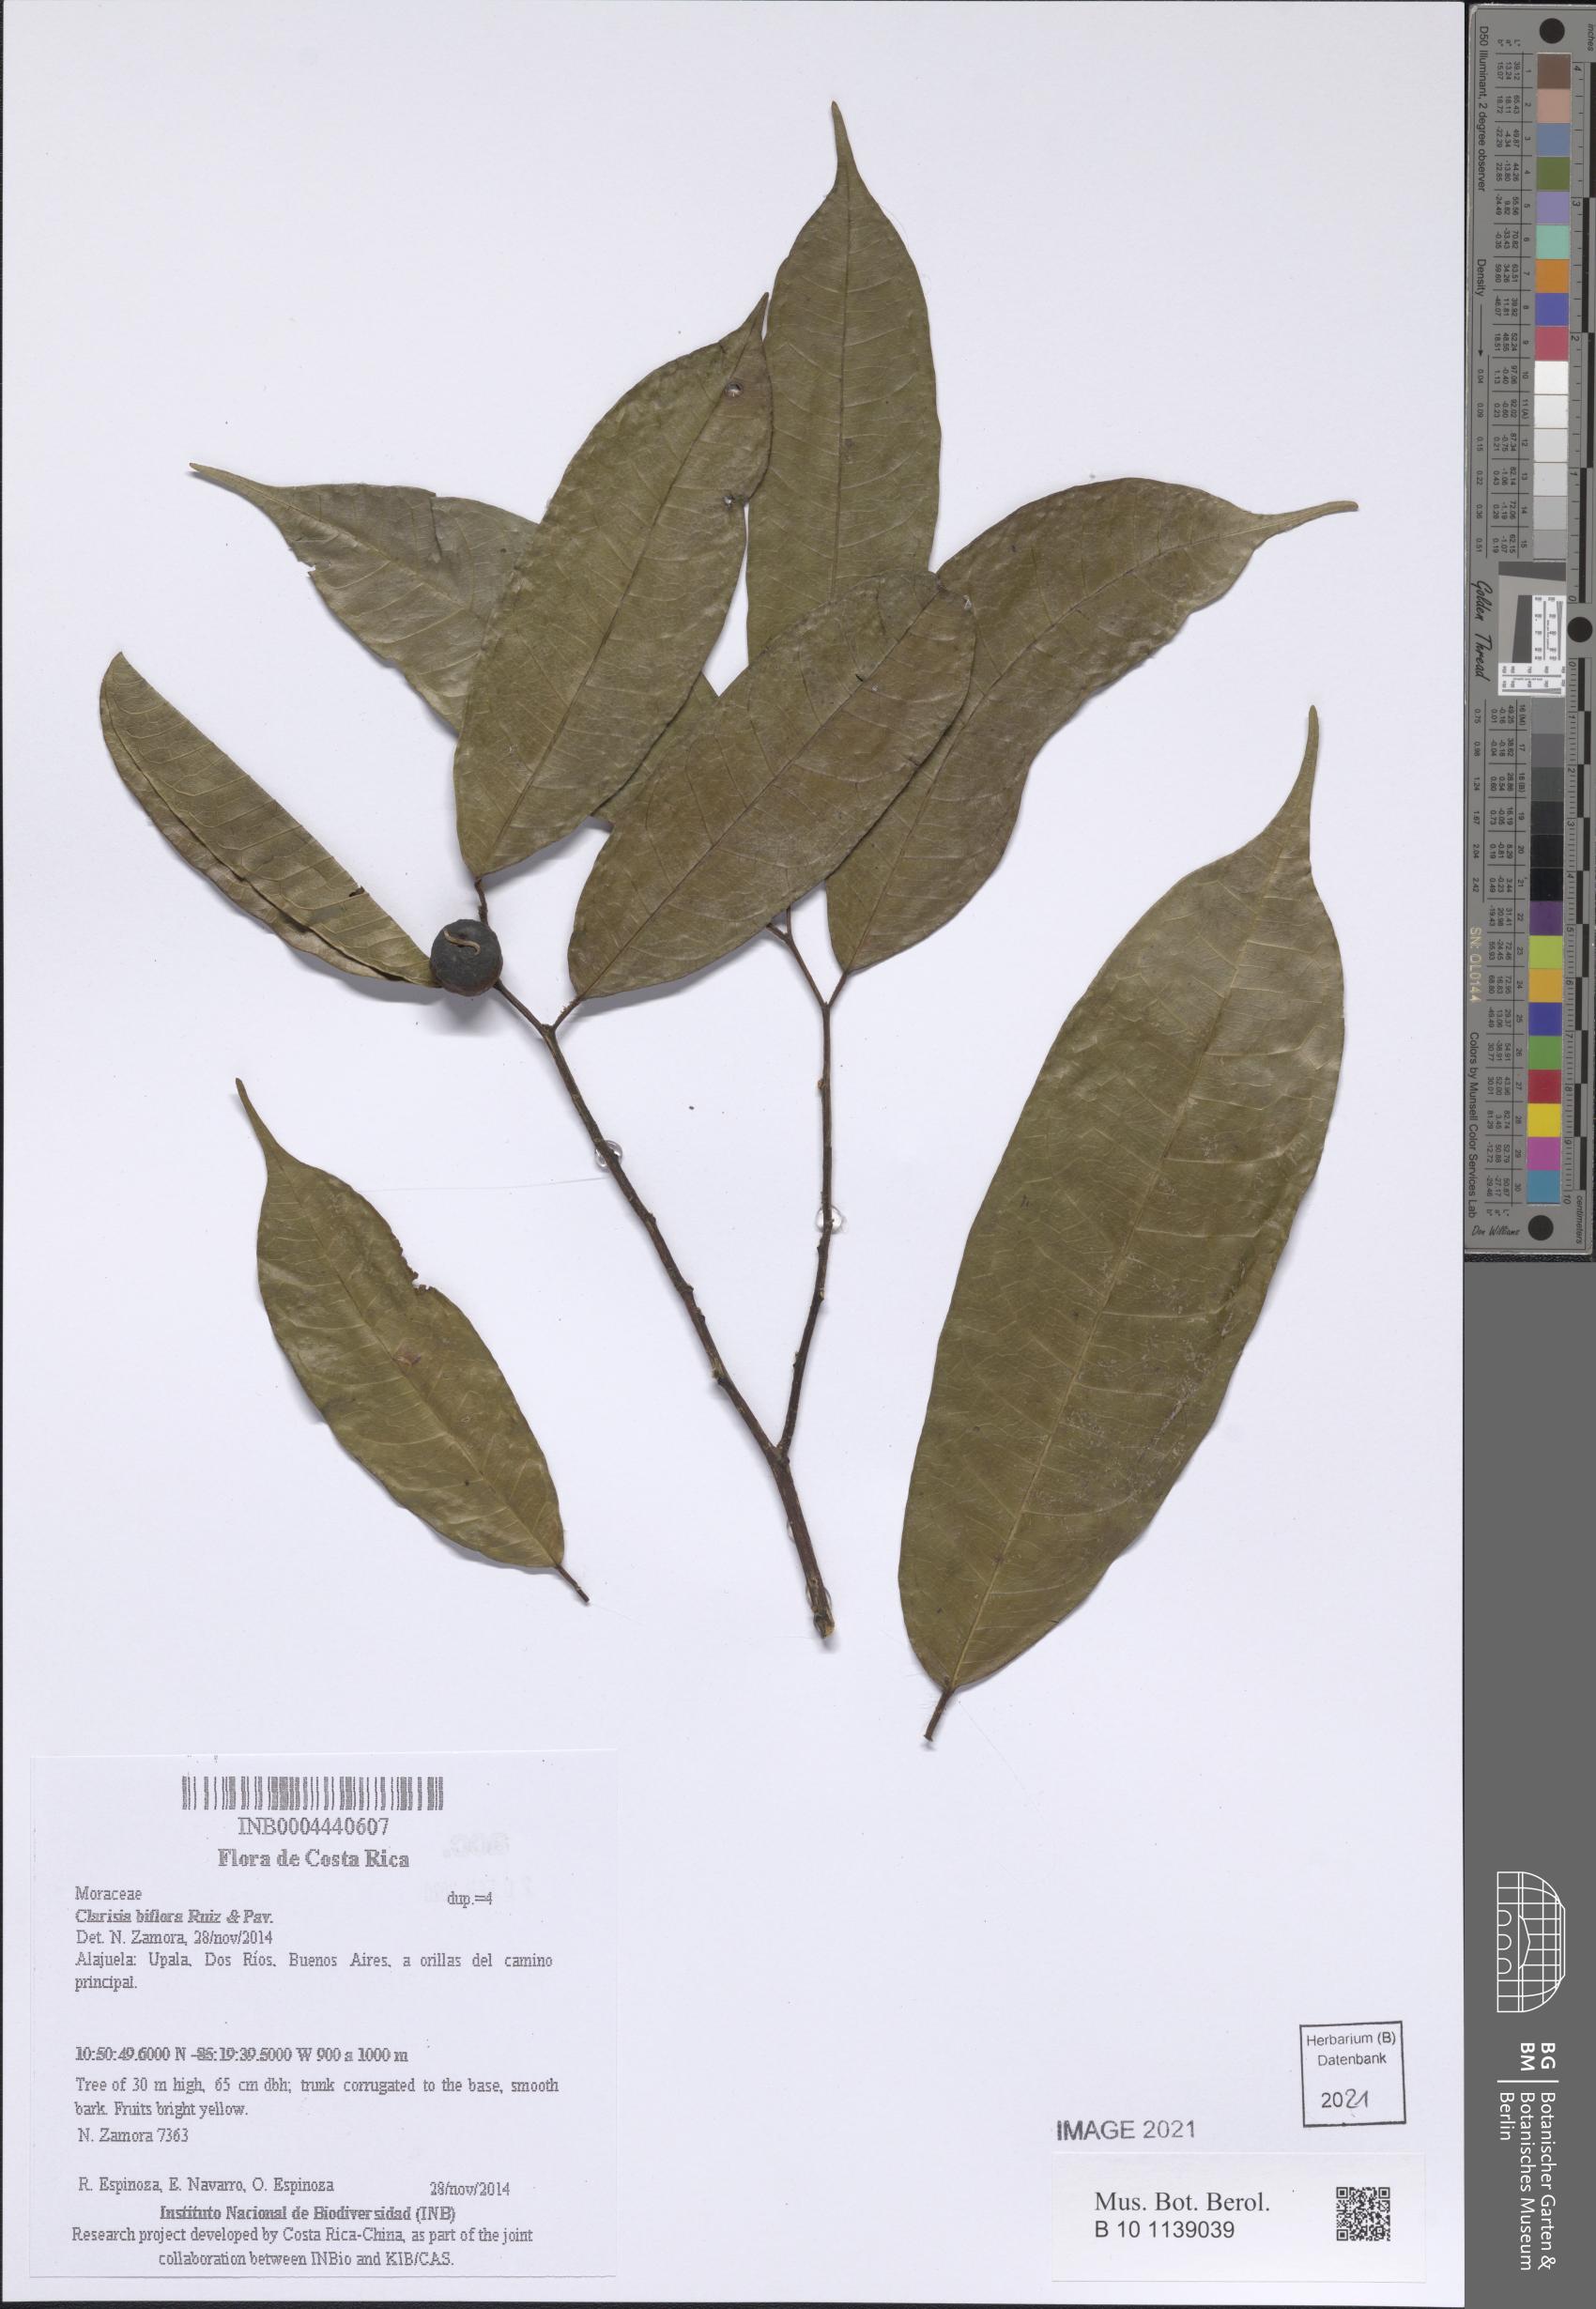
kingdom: Plantae
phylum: Tracheophyta
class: Magnoliopsida
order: Rosales
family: Moraceae
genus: Clarisia
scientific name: Clarisia biflora
